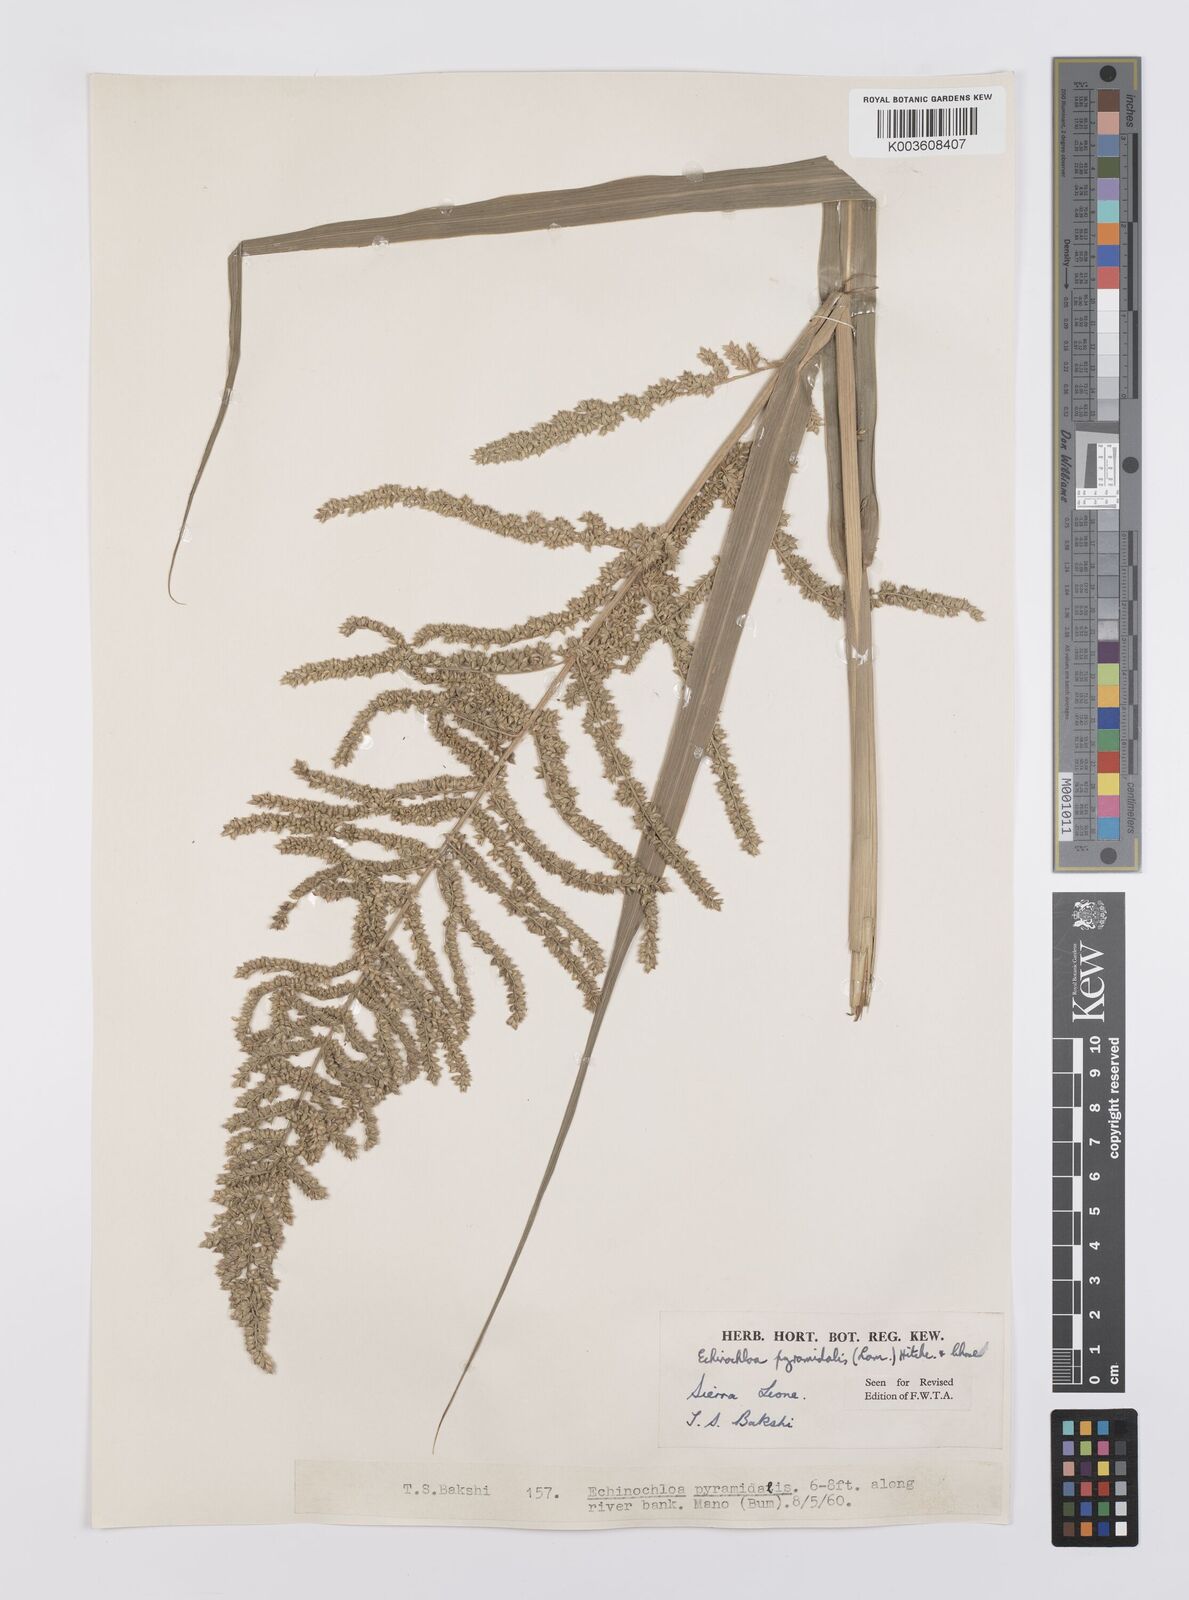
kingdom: Plantae
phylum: Tracheophyta
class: Liliopsida
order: Poales
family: Poaceae
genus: Echinochloa
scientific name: Echinochloa pyramidalis
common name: Antelope grass
